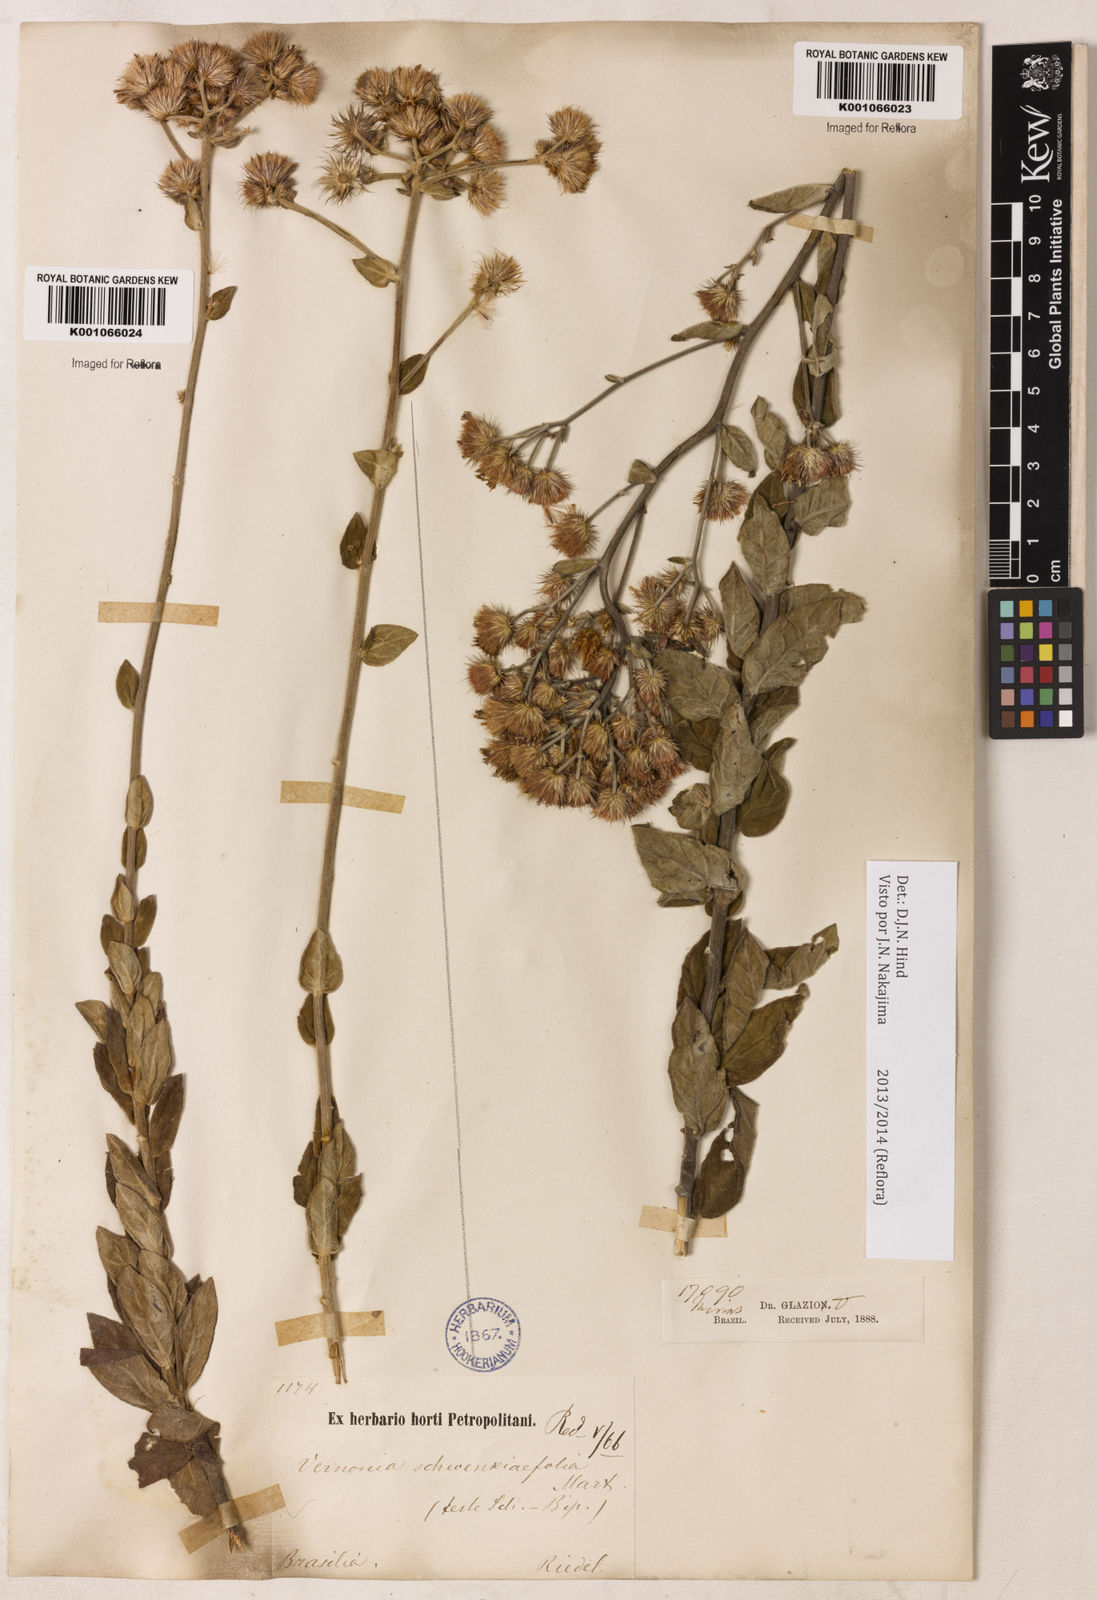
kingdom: Plantae
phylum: Tracheophyta
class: Magnoliopsida
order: Asterales
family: Asteraceae
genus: Vernonia
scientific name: Vernonia
